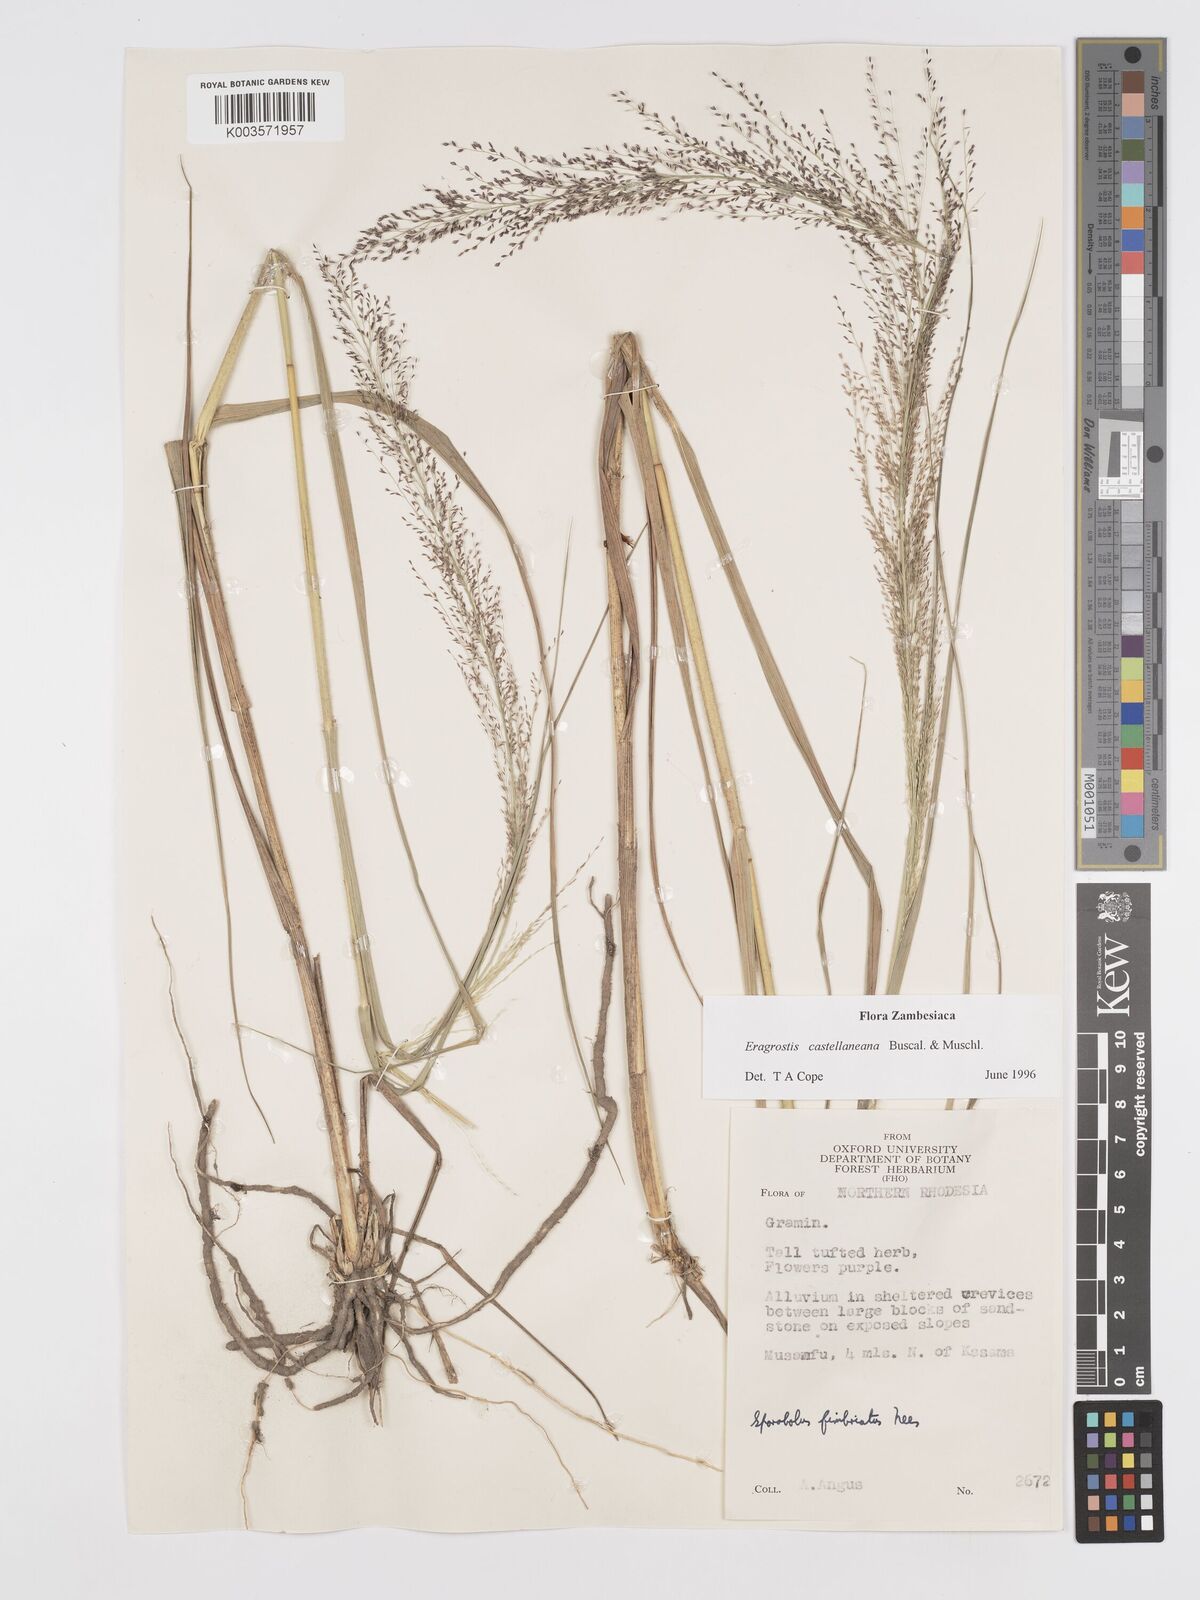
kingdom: Plantae
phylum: Tracheophyta
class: Liliopsida
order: Poales
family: Poaceae
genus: Eragrostis
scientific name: Eragrostis castellaneana
